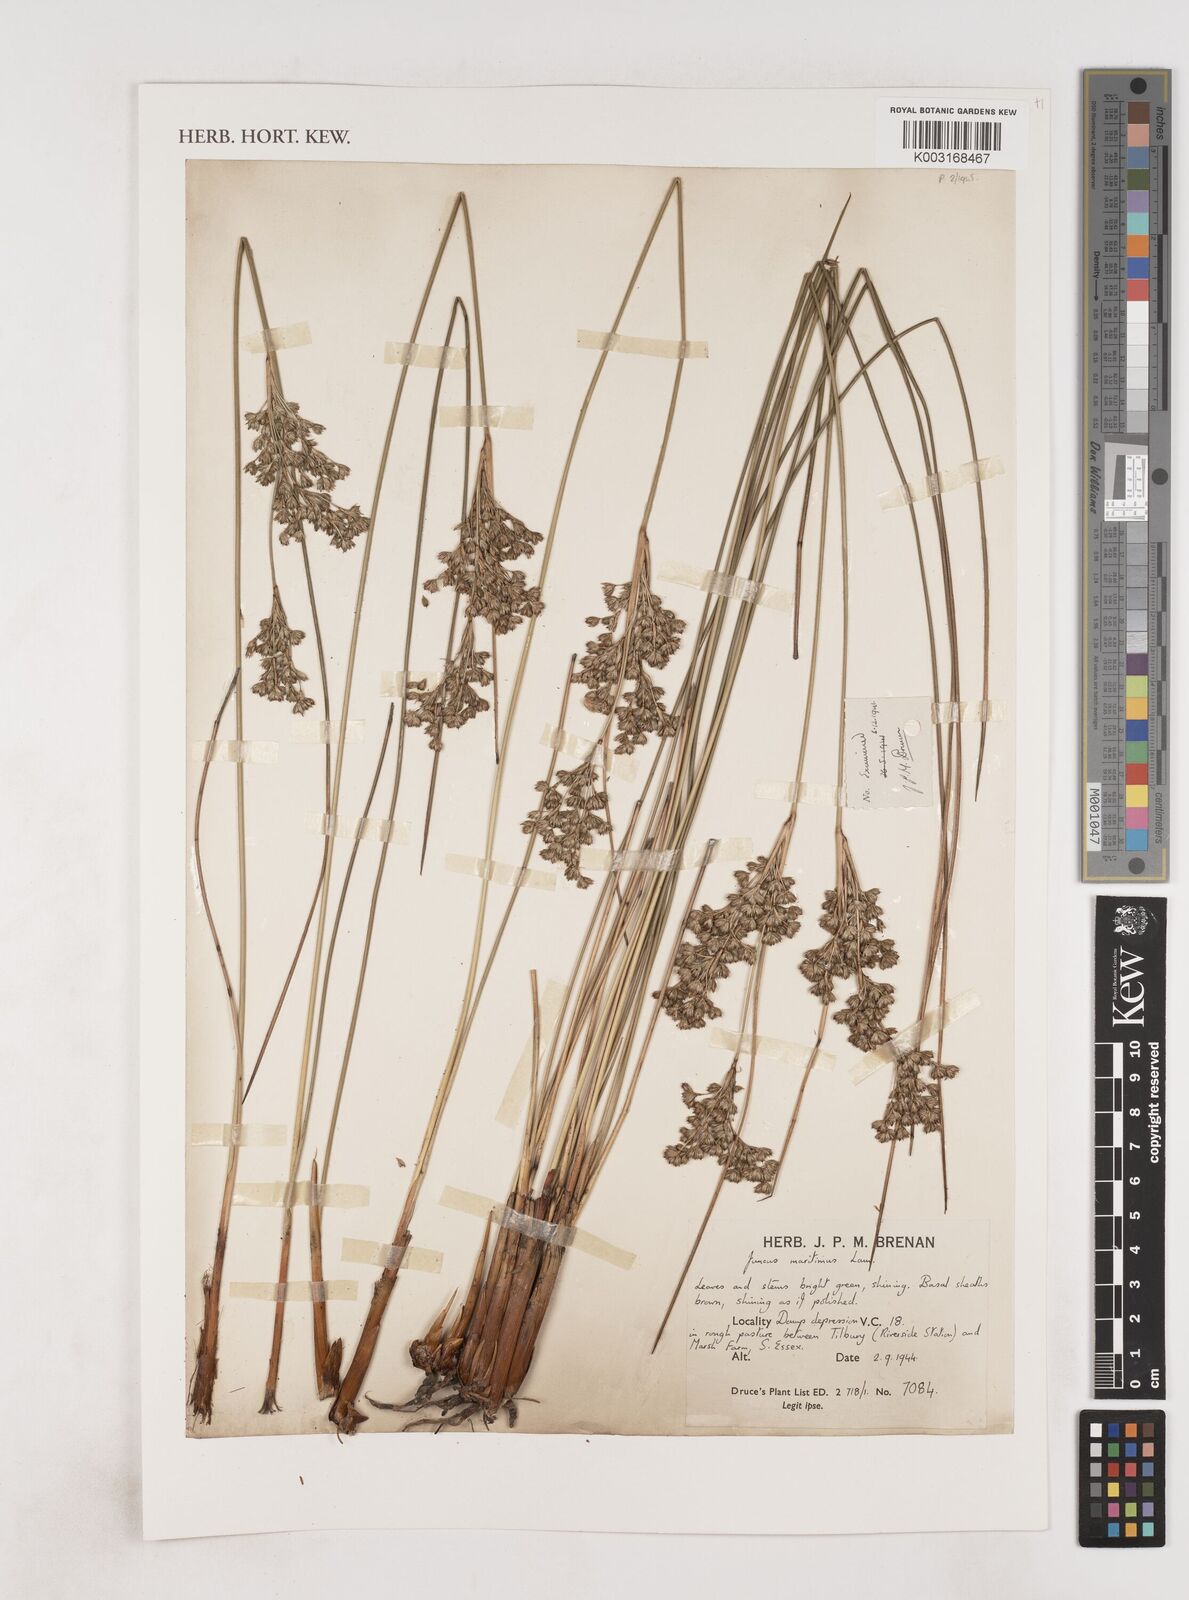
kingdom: Plantae
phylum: Tracheophyta
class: Liliopsida
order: Poales
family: Juncaceae
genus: Juncus
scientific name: Juncus maritimus
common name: Sea rush
